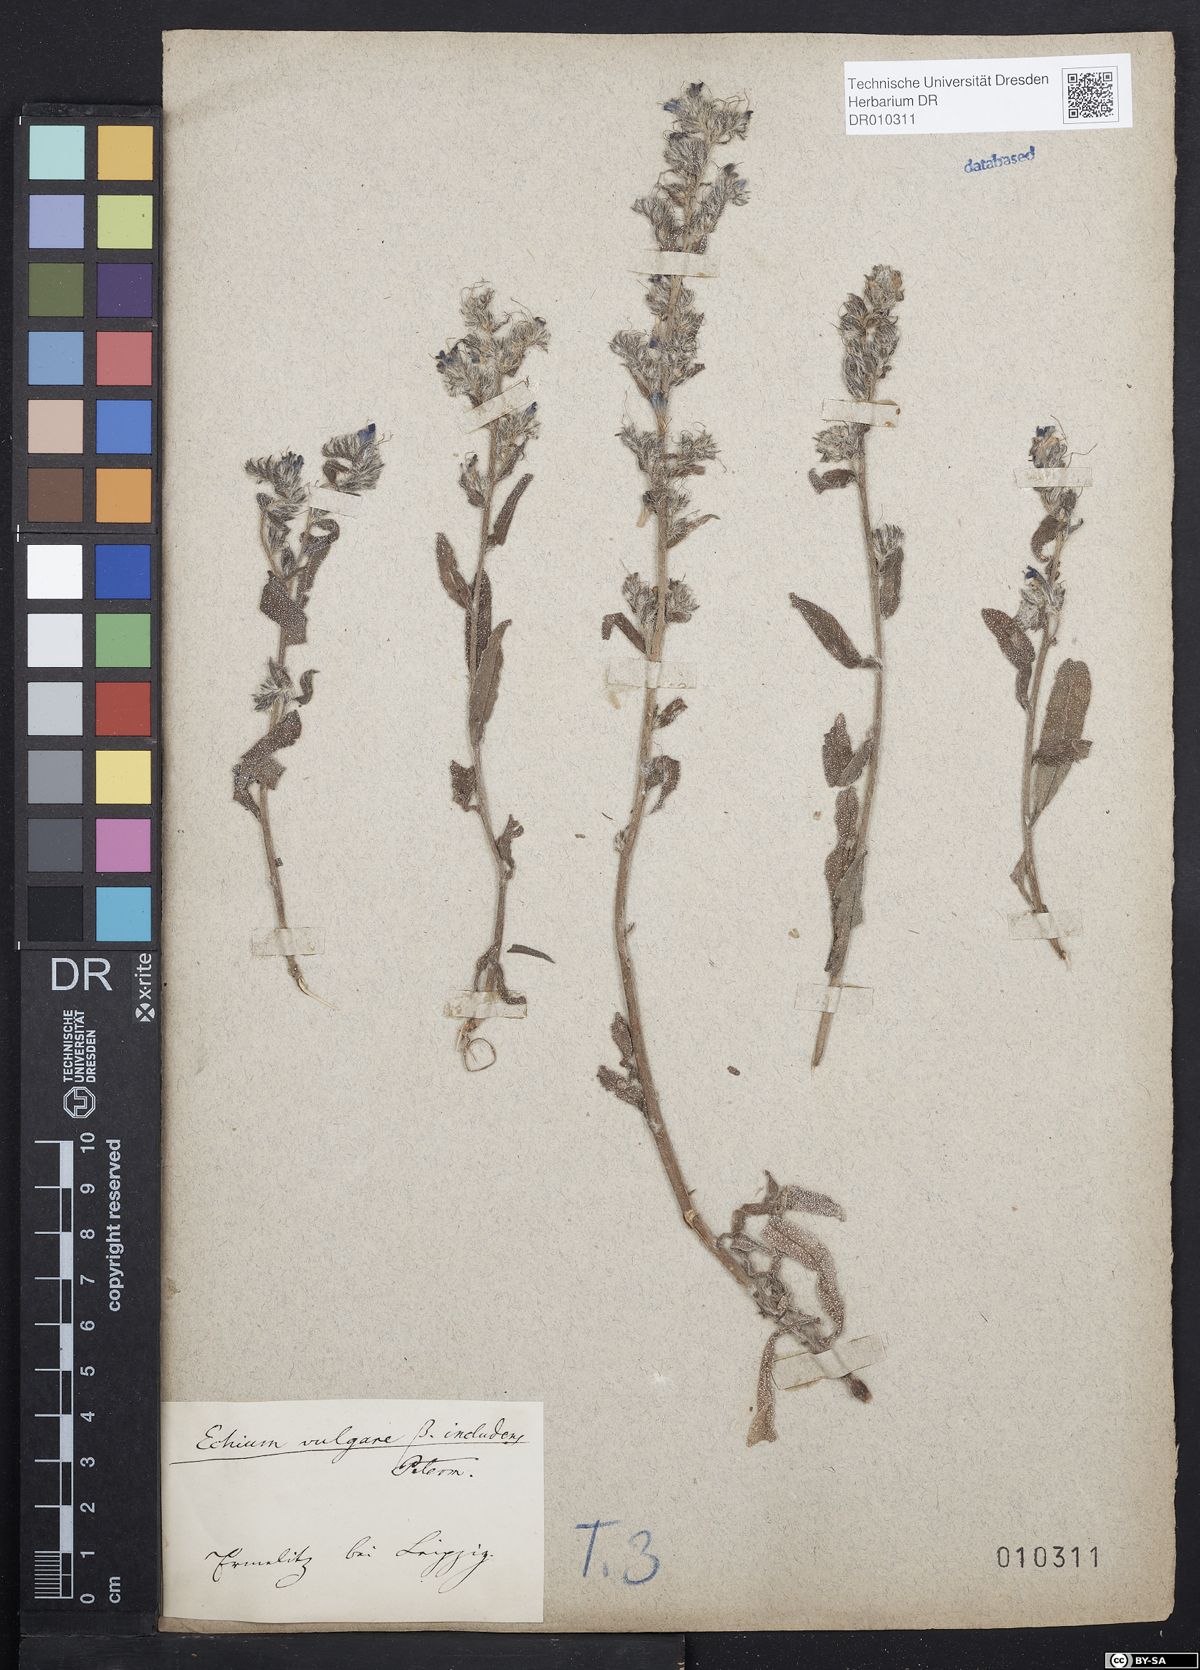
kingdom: Plantae
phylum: Tracheophyta
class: Magnoliopsida
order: Boraginales
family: Boraginaceae
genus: Echium
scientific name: Echium vulgare
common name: Common viper's bugloss
